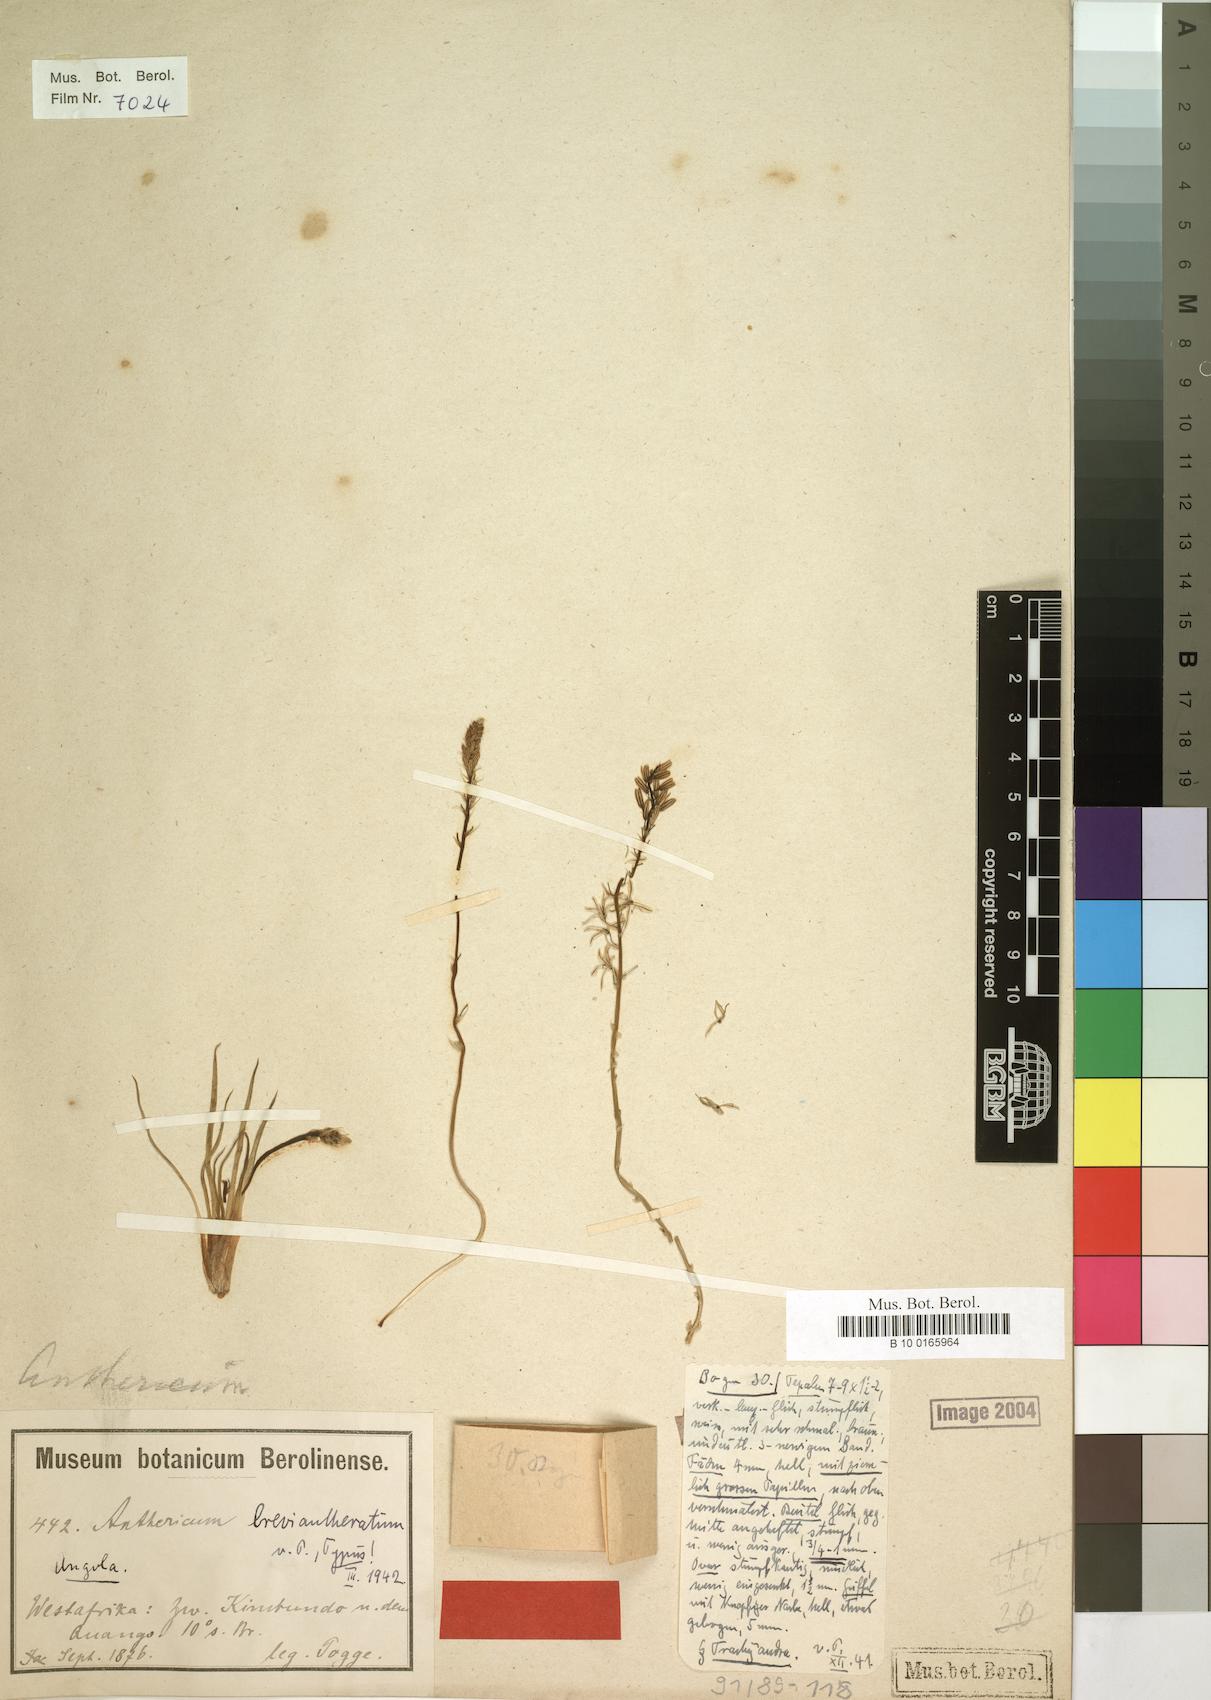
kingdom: Plantae
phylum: Tracheophyta
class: Liliopsida
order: Asparagales
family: Asparagaceae
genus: Anthericum
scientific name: Anthericum breviantheratum
